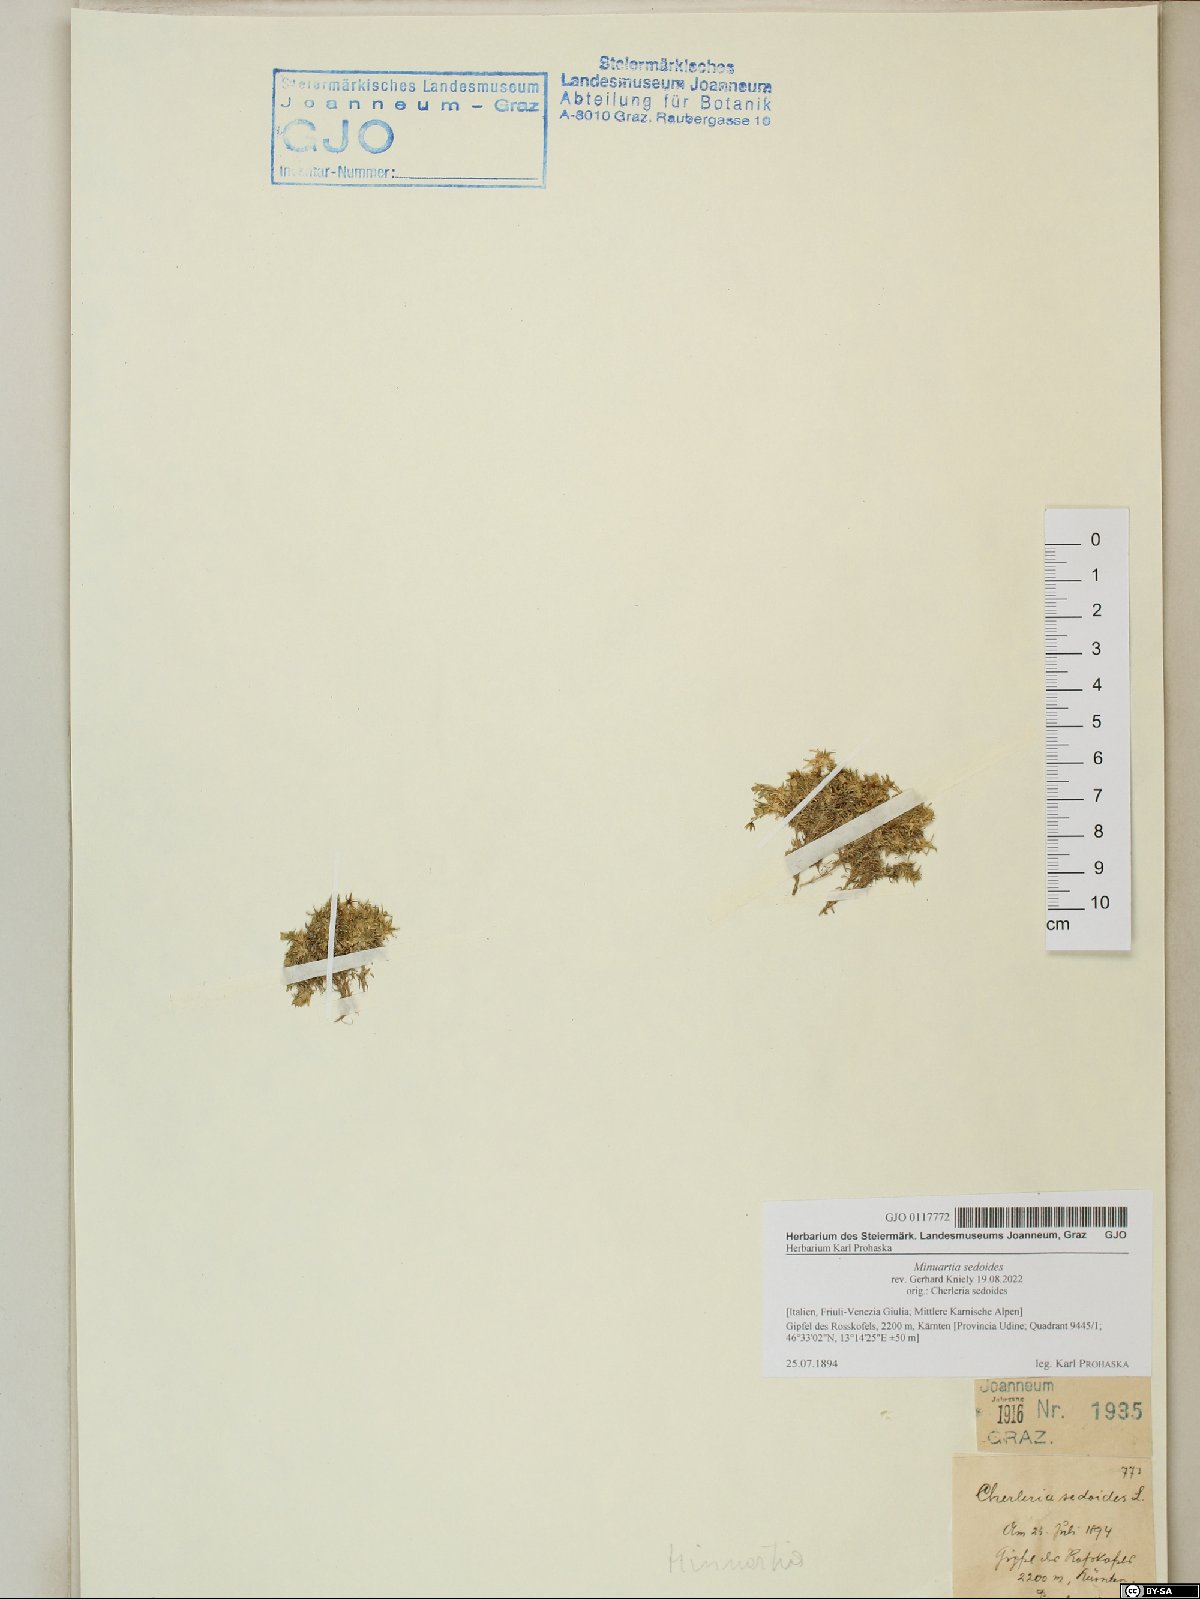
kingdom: Plantae
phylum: Tracheophyta
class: Magnoliopsida
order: Caryophyllales
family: Caryophyllaceae
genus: Cherleria
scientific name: Cherleria sedoides
